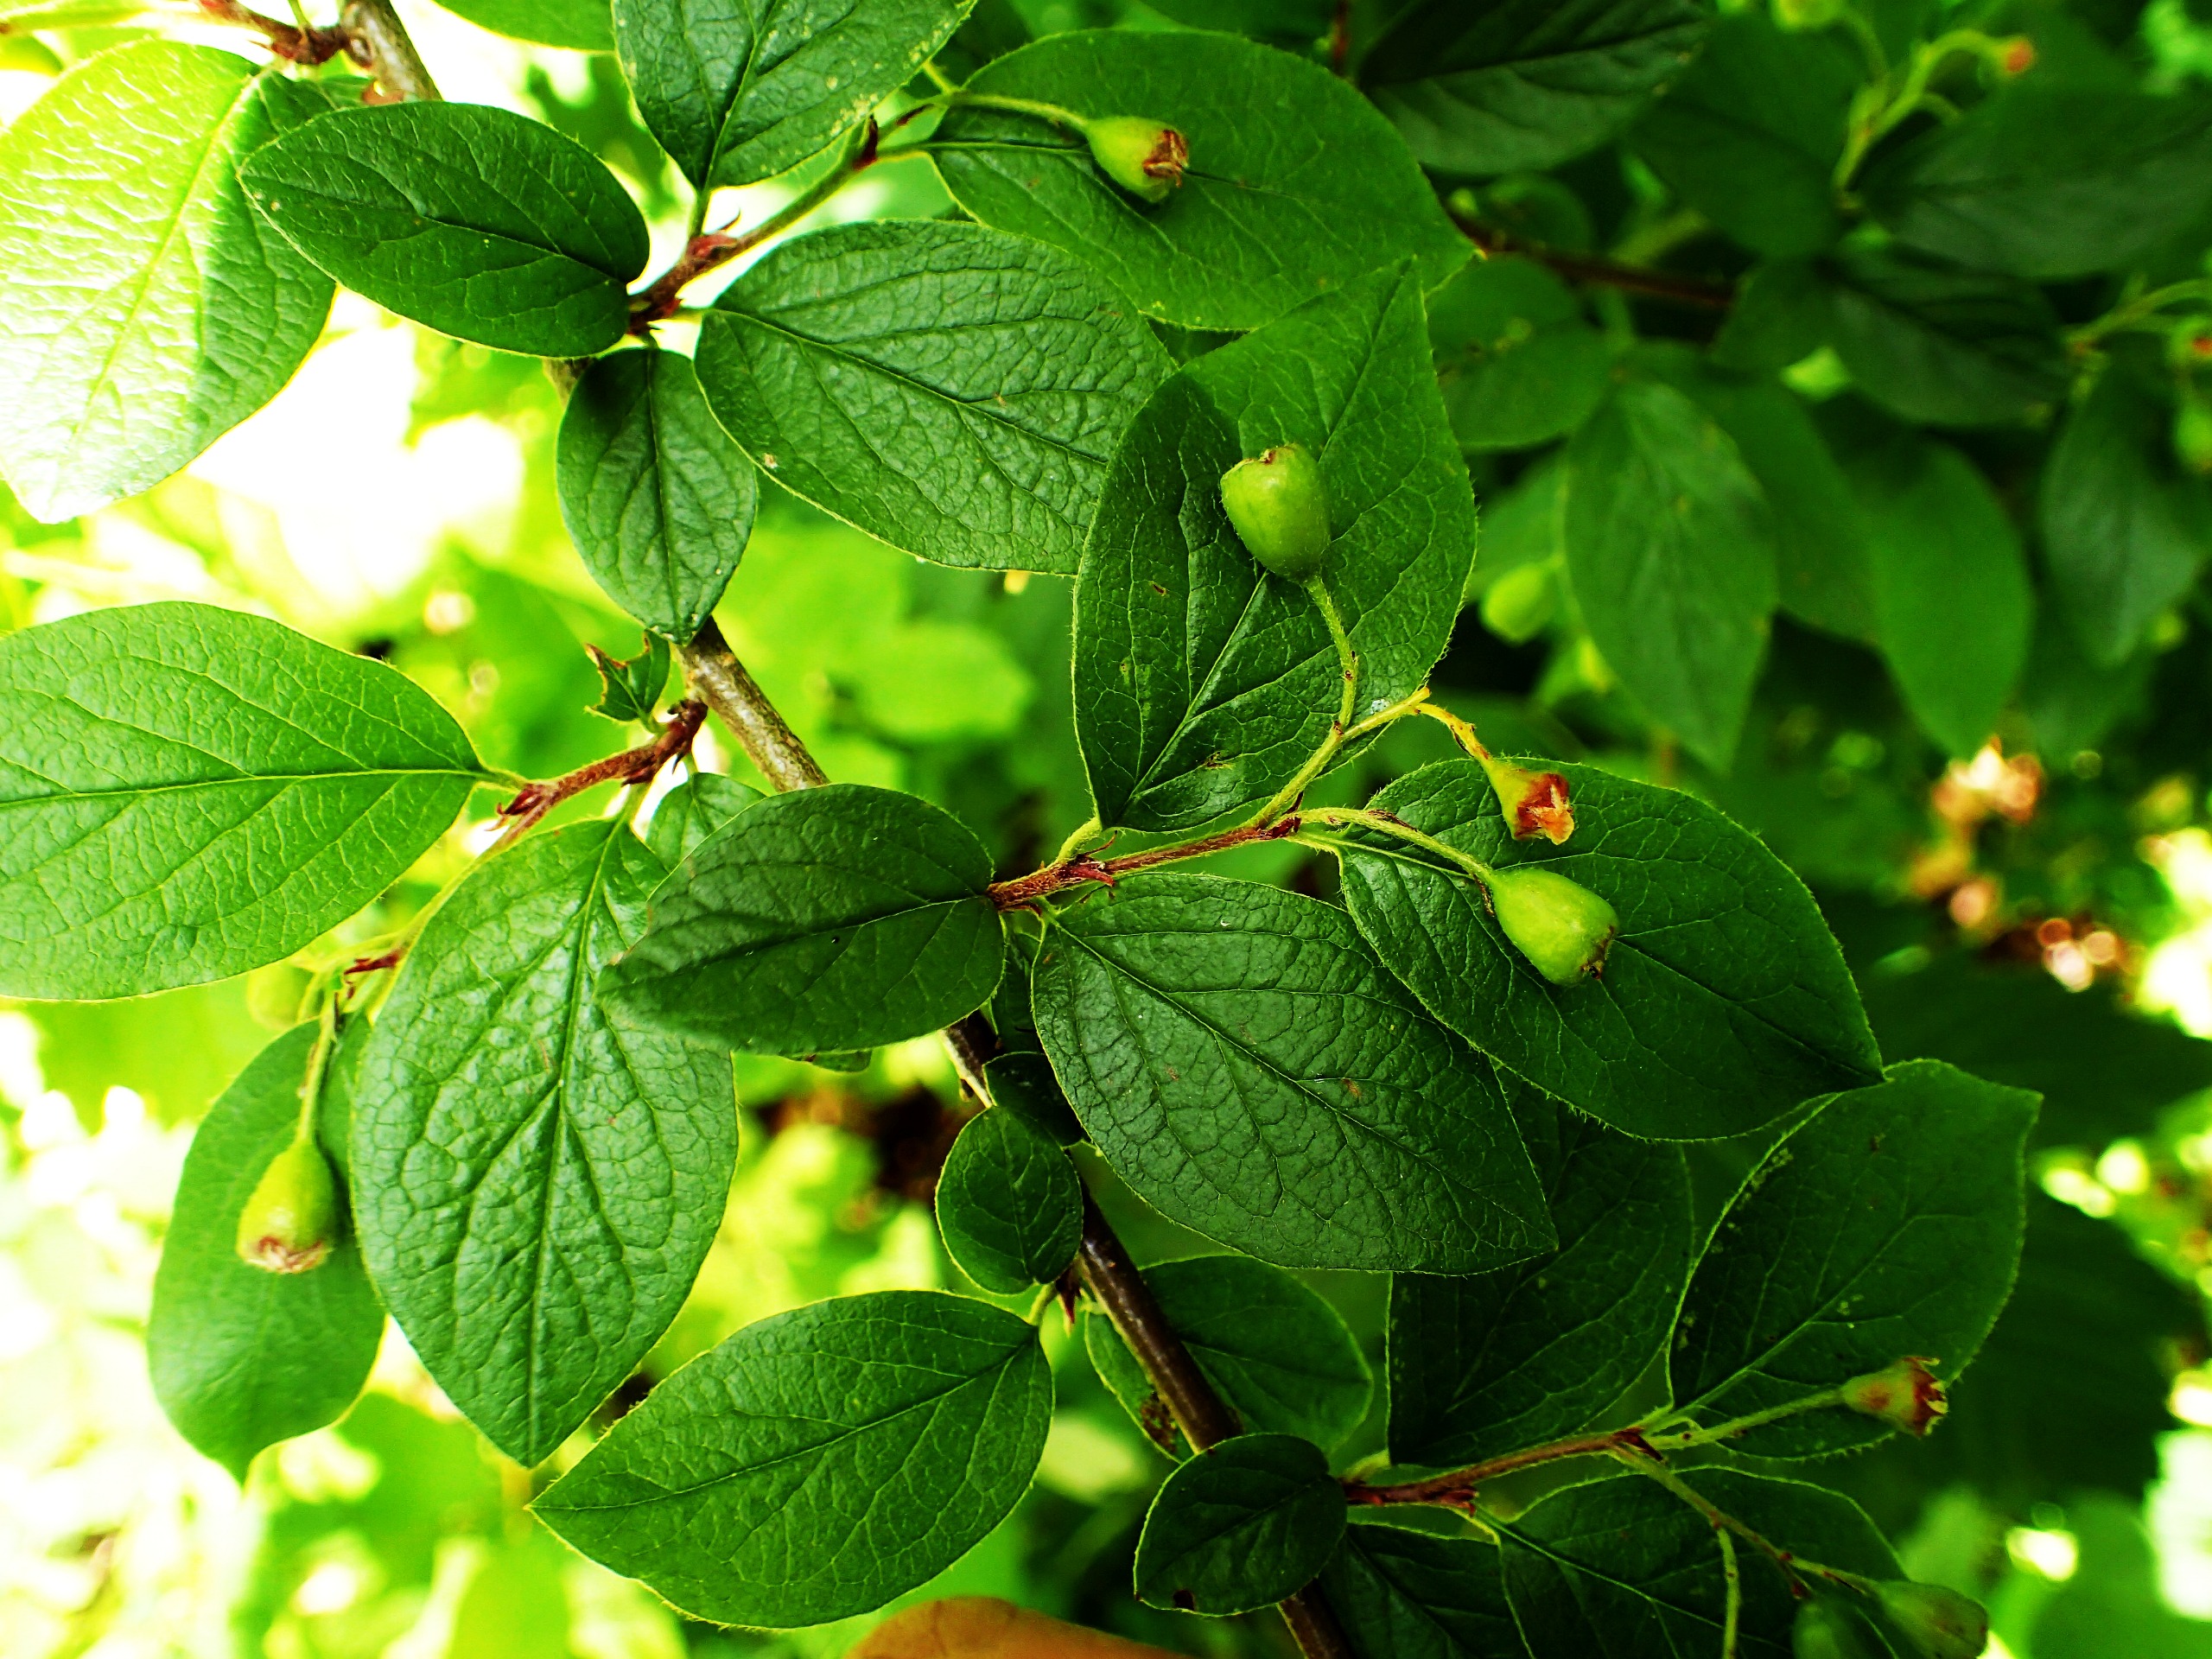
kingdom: Plantae
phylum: Tracheophyta
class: Magnoliopsida
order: Rosales
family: Rosaceae
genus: Cotoneaster
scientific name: Cotoneaster bullatus
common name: Buklet dværgmispel
